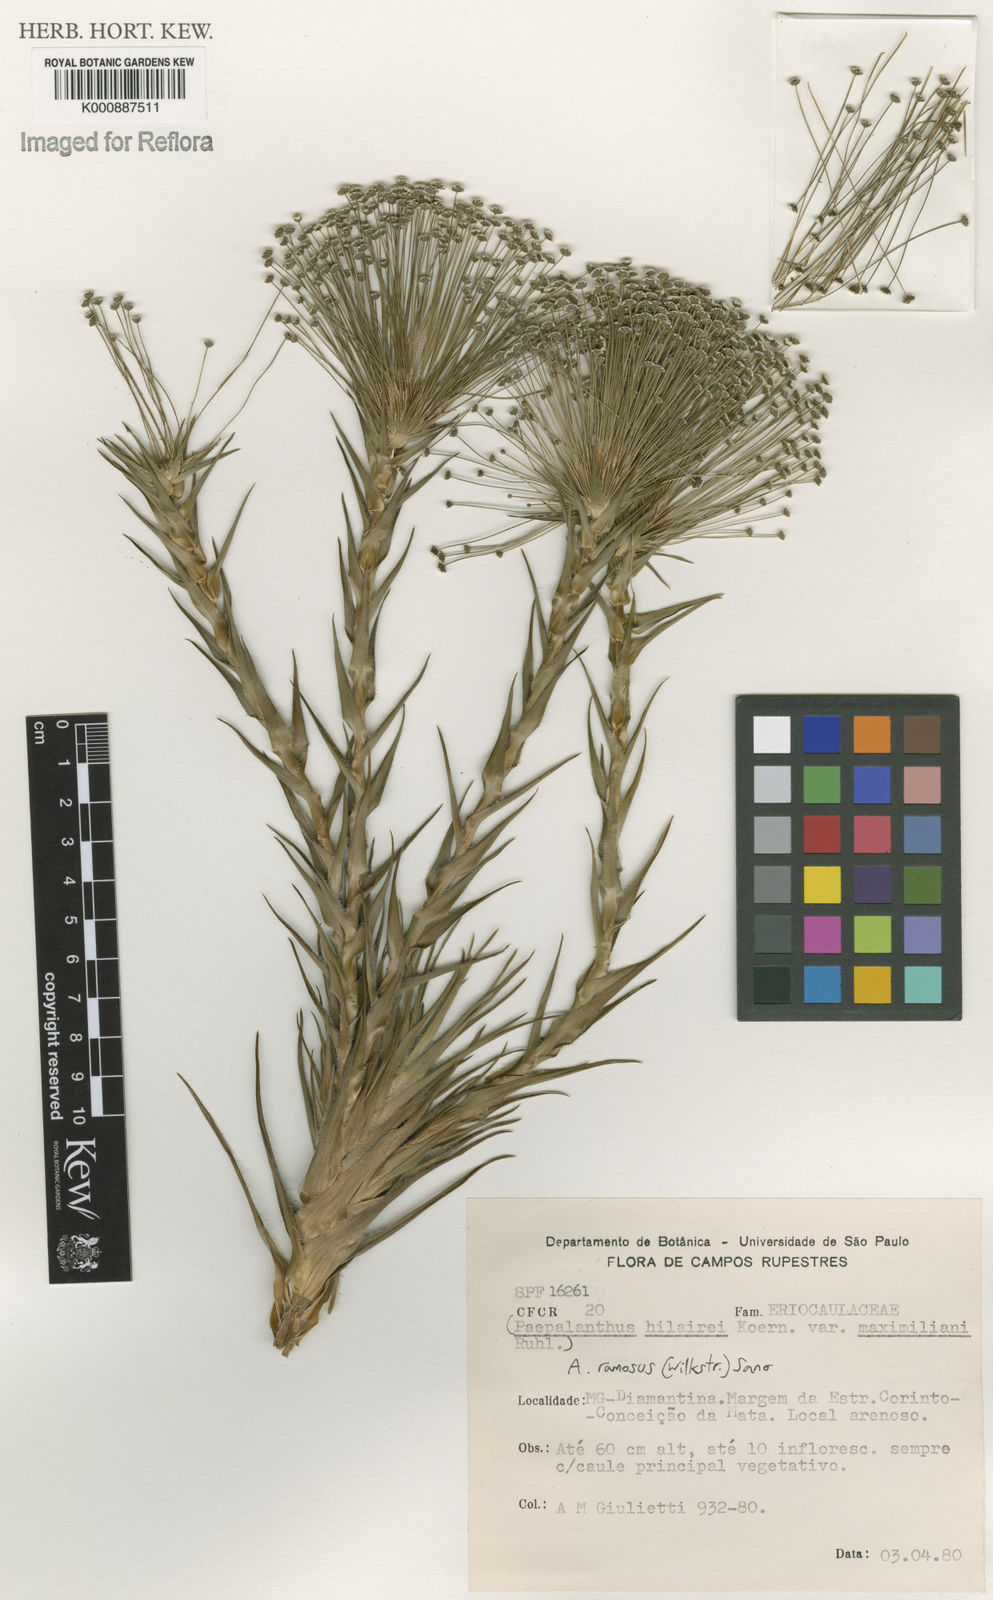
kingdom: Plantae
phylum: Tracheophyta
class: Liliopsida
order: Poales
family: Eriocaulaceae
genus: Paepalanthus
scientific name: Paepalanthus ramosus
